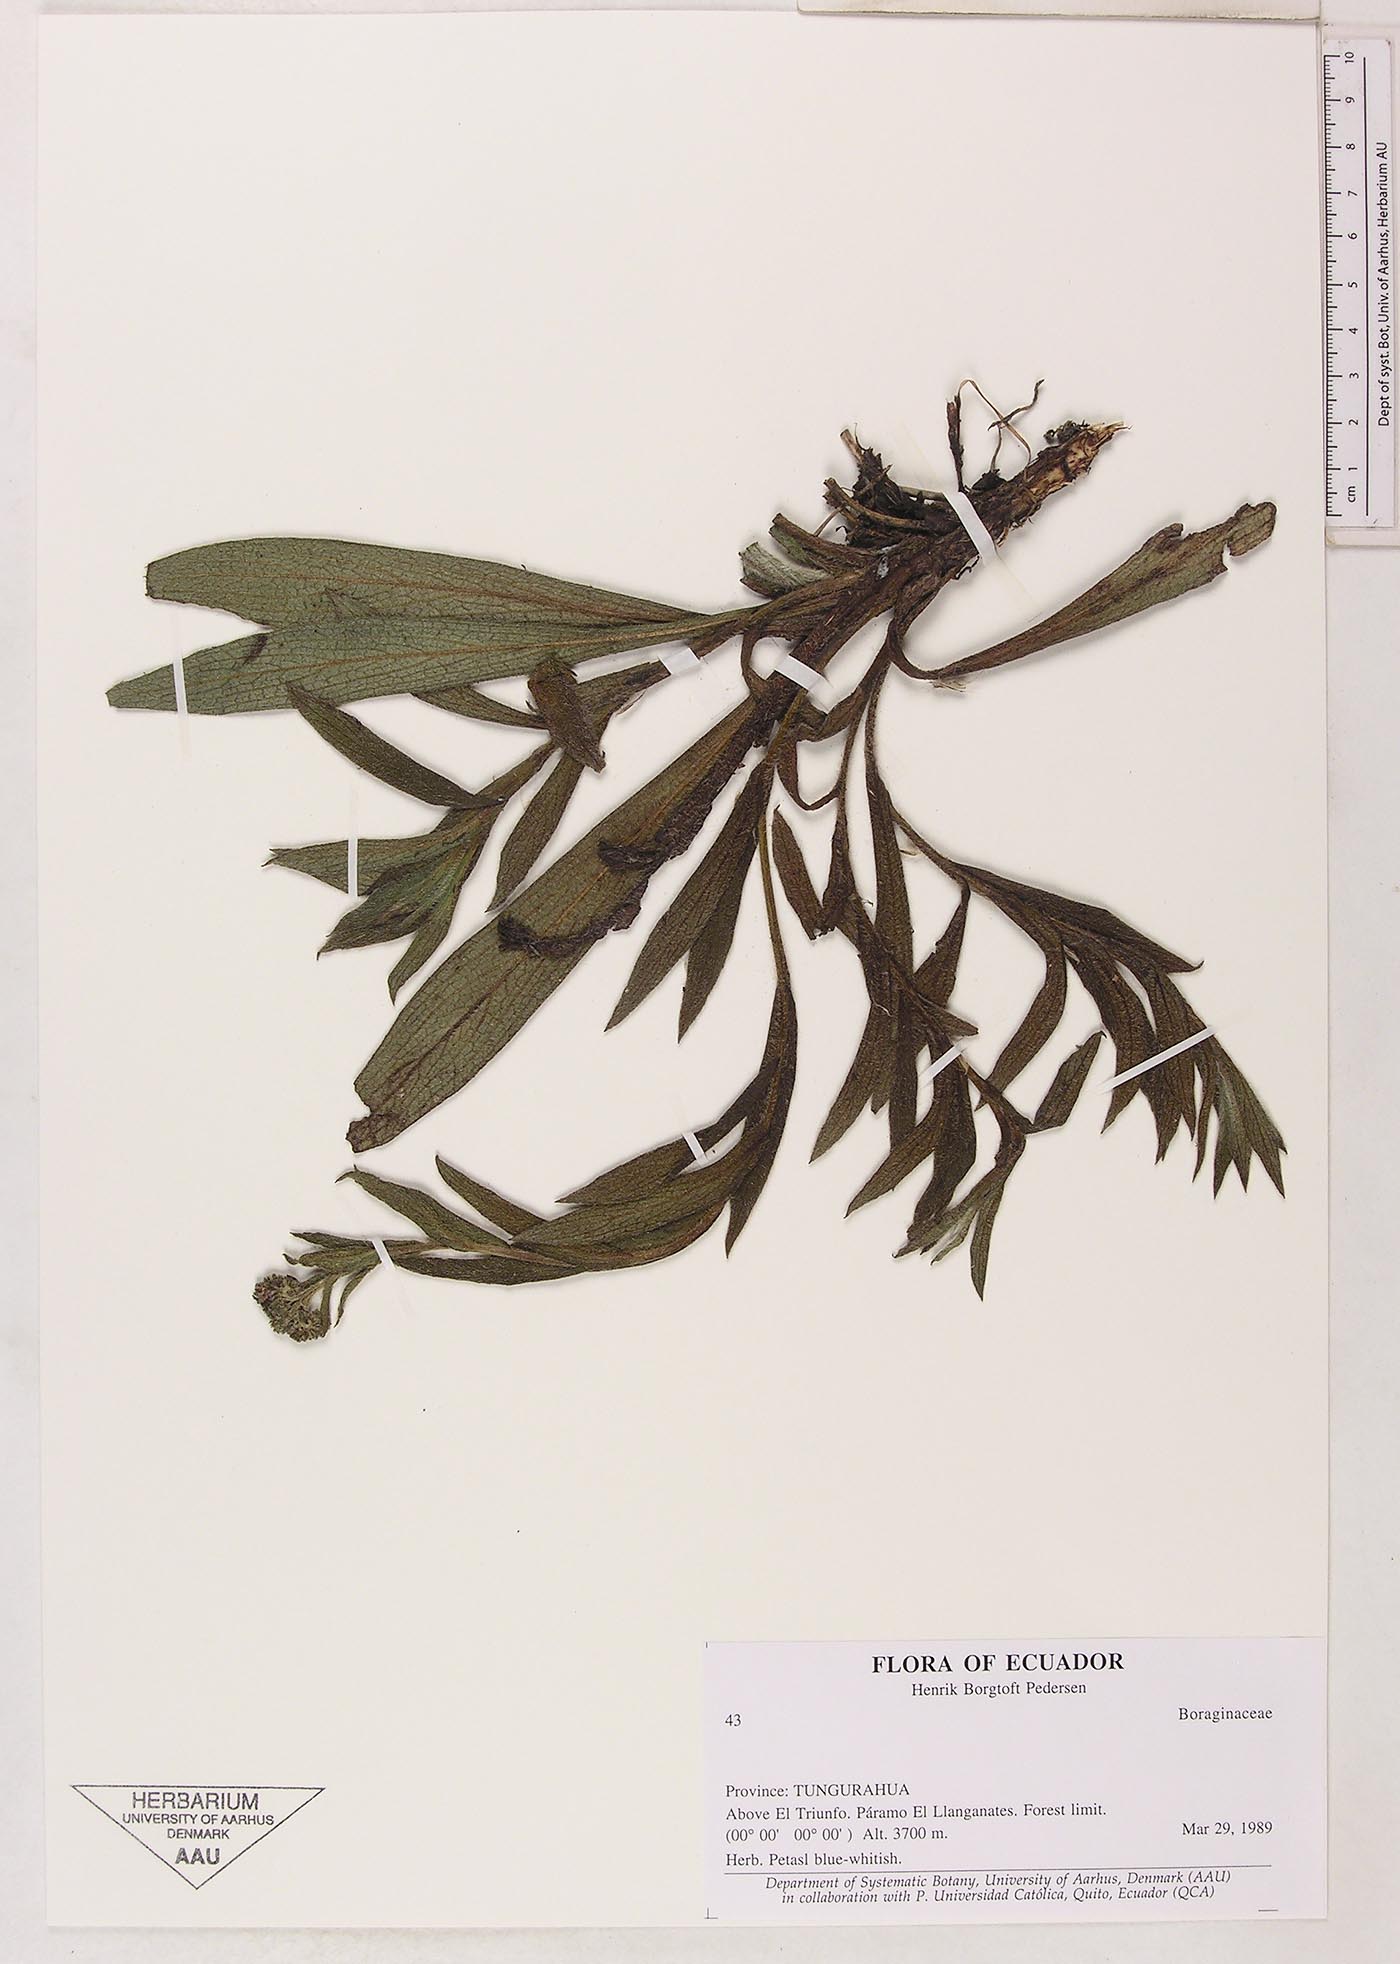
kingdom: Plantae
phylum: Tracheophyta
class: Magnoliopsida
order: Boraginales
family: Boraginaceae
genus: Moritzia
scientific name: Moritzia lindenii
